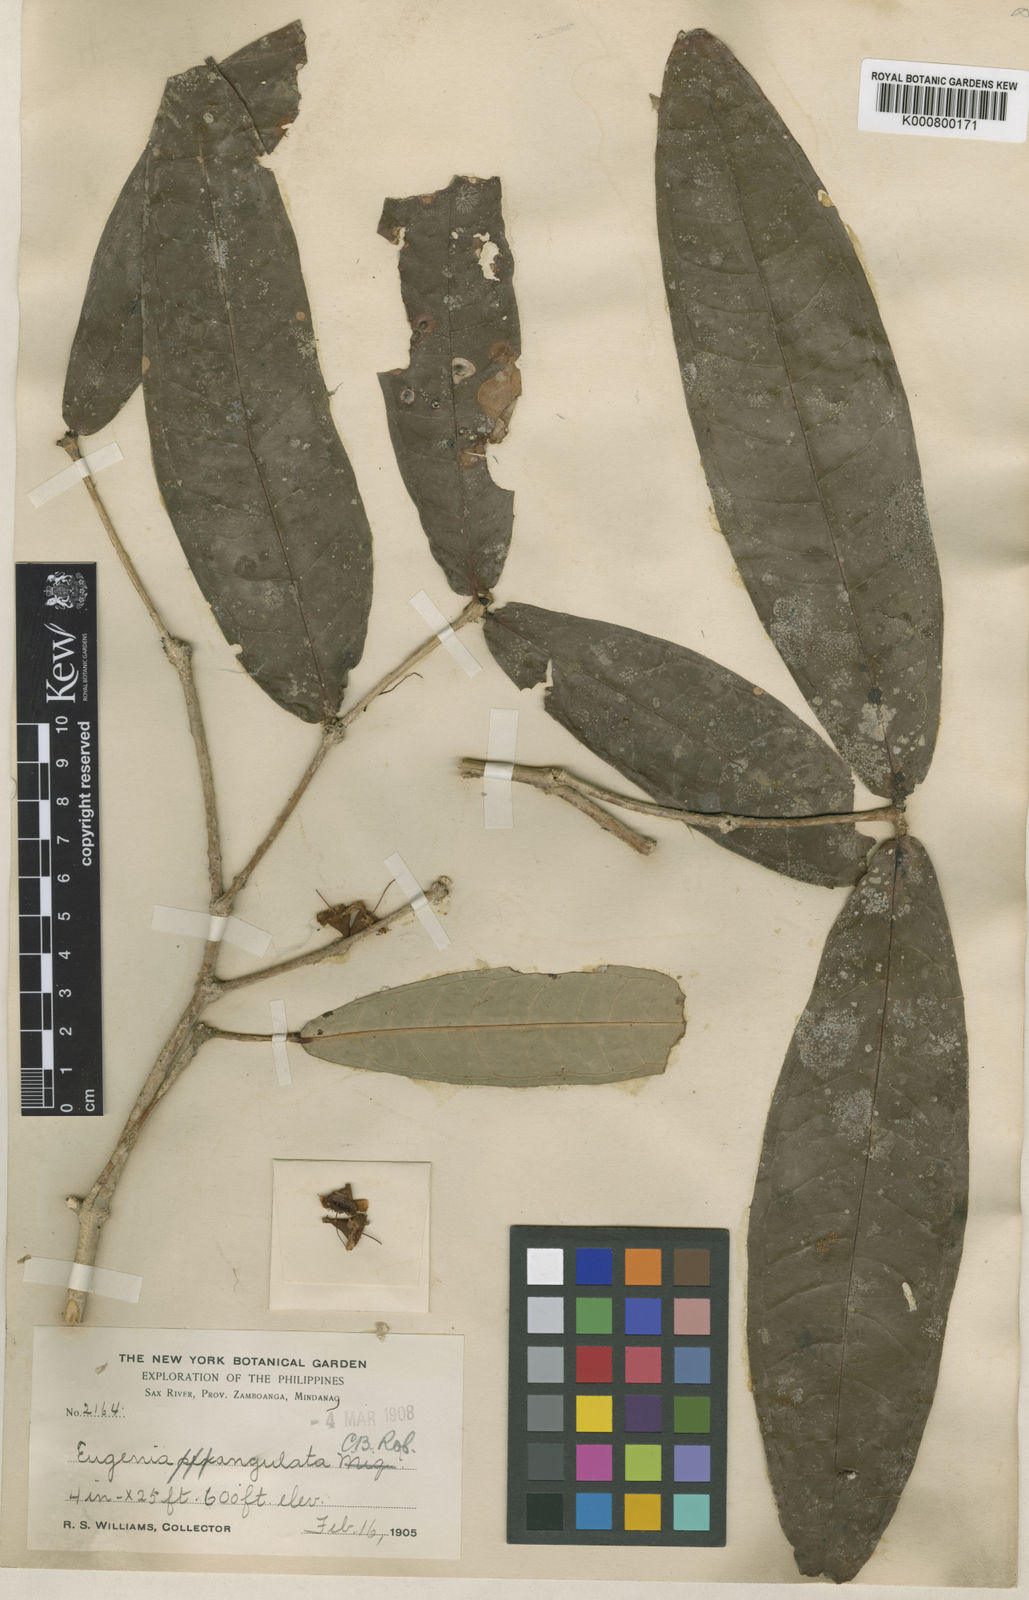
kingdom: Plantae
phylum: Tracheophyta
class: Magnoliopsida
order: Myrtales
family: Myrtaceae
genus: Syzygium
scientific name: Syzygium angulatum
